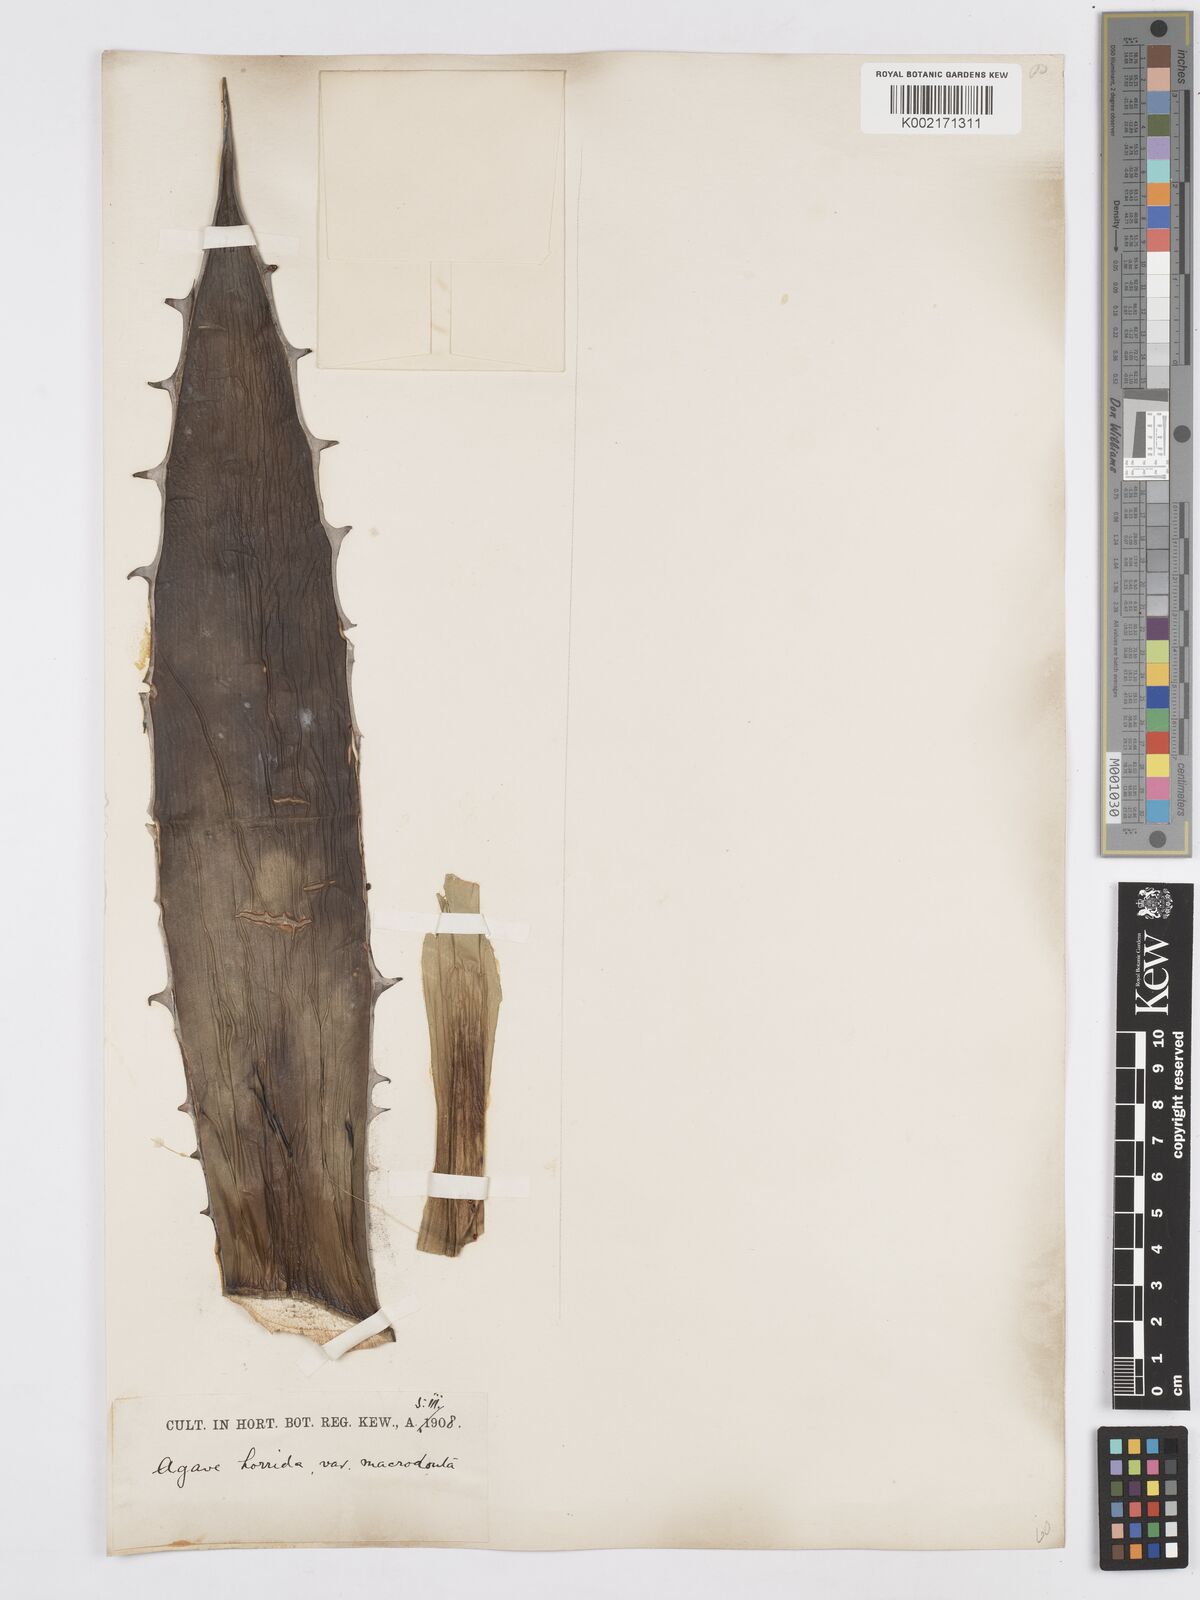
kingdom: Plantae
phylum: Tracheophyta
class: Liliopsida
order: Asparagales
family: Asparagaceae
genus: Agave
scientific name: Agave horrida
